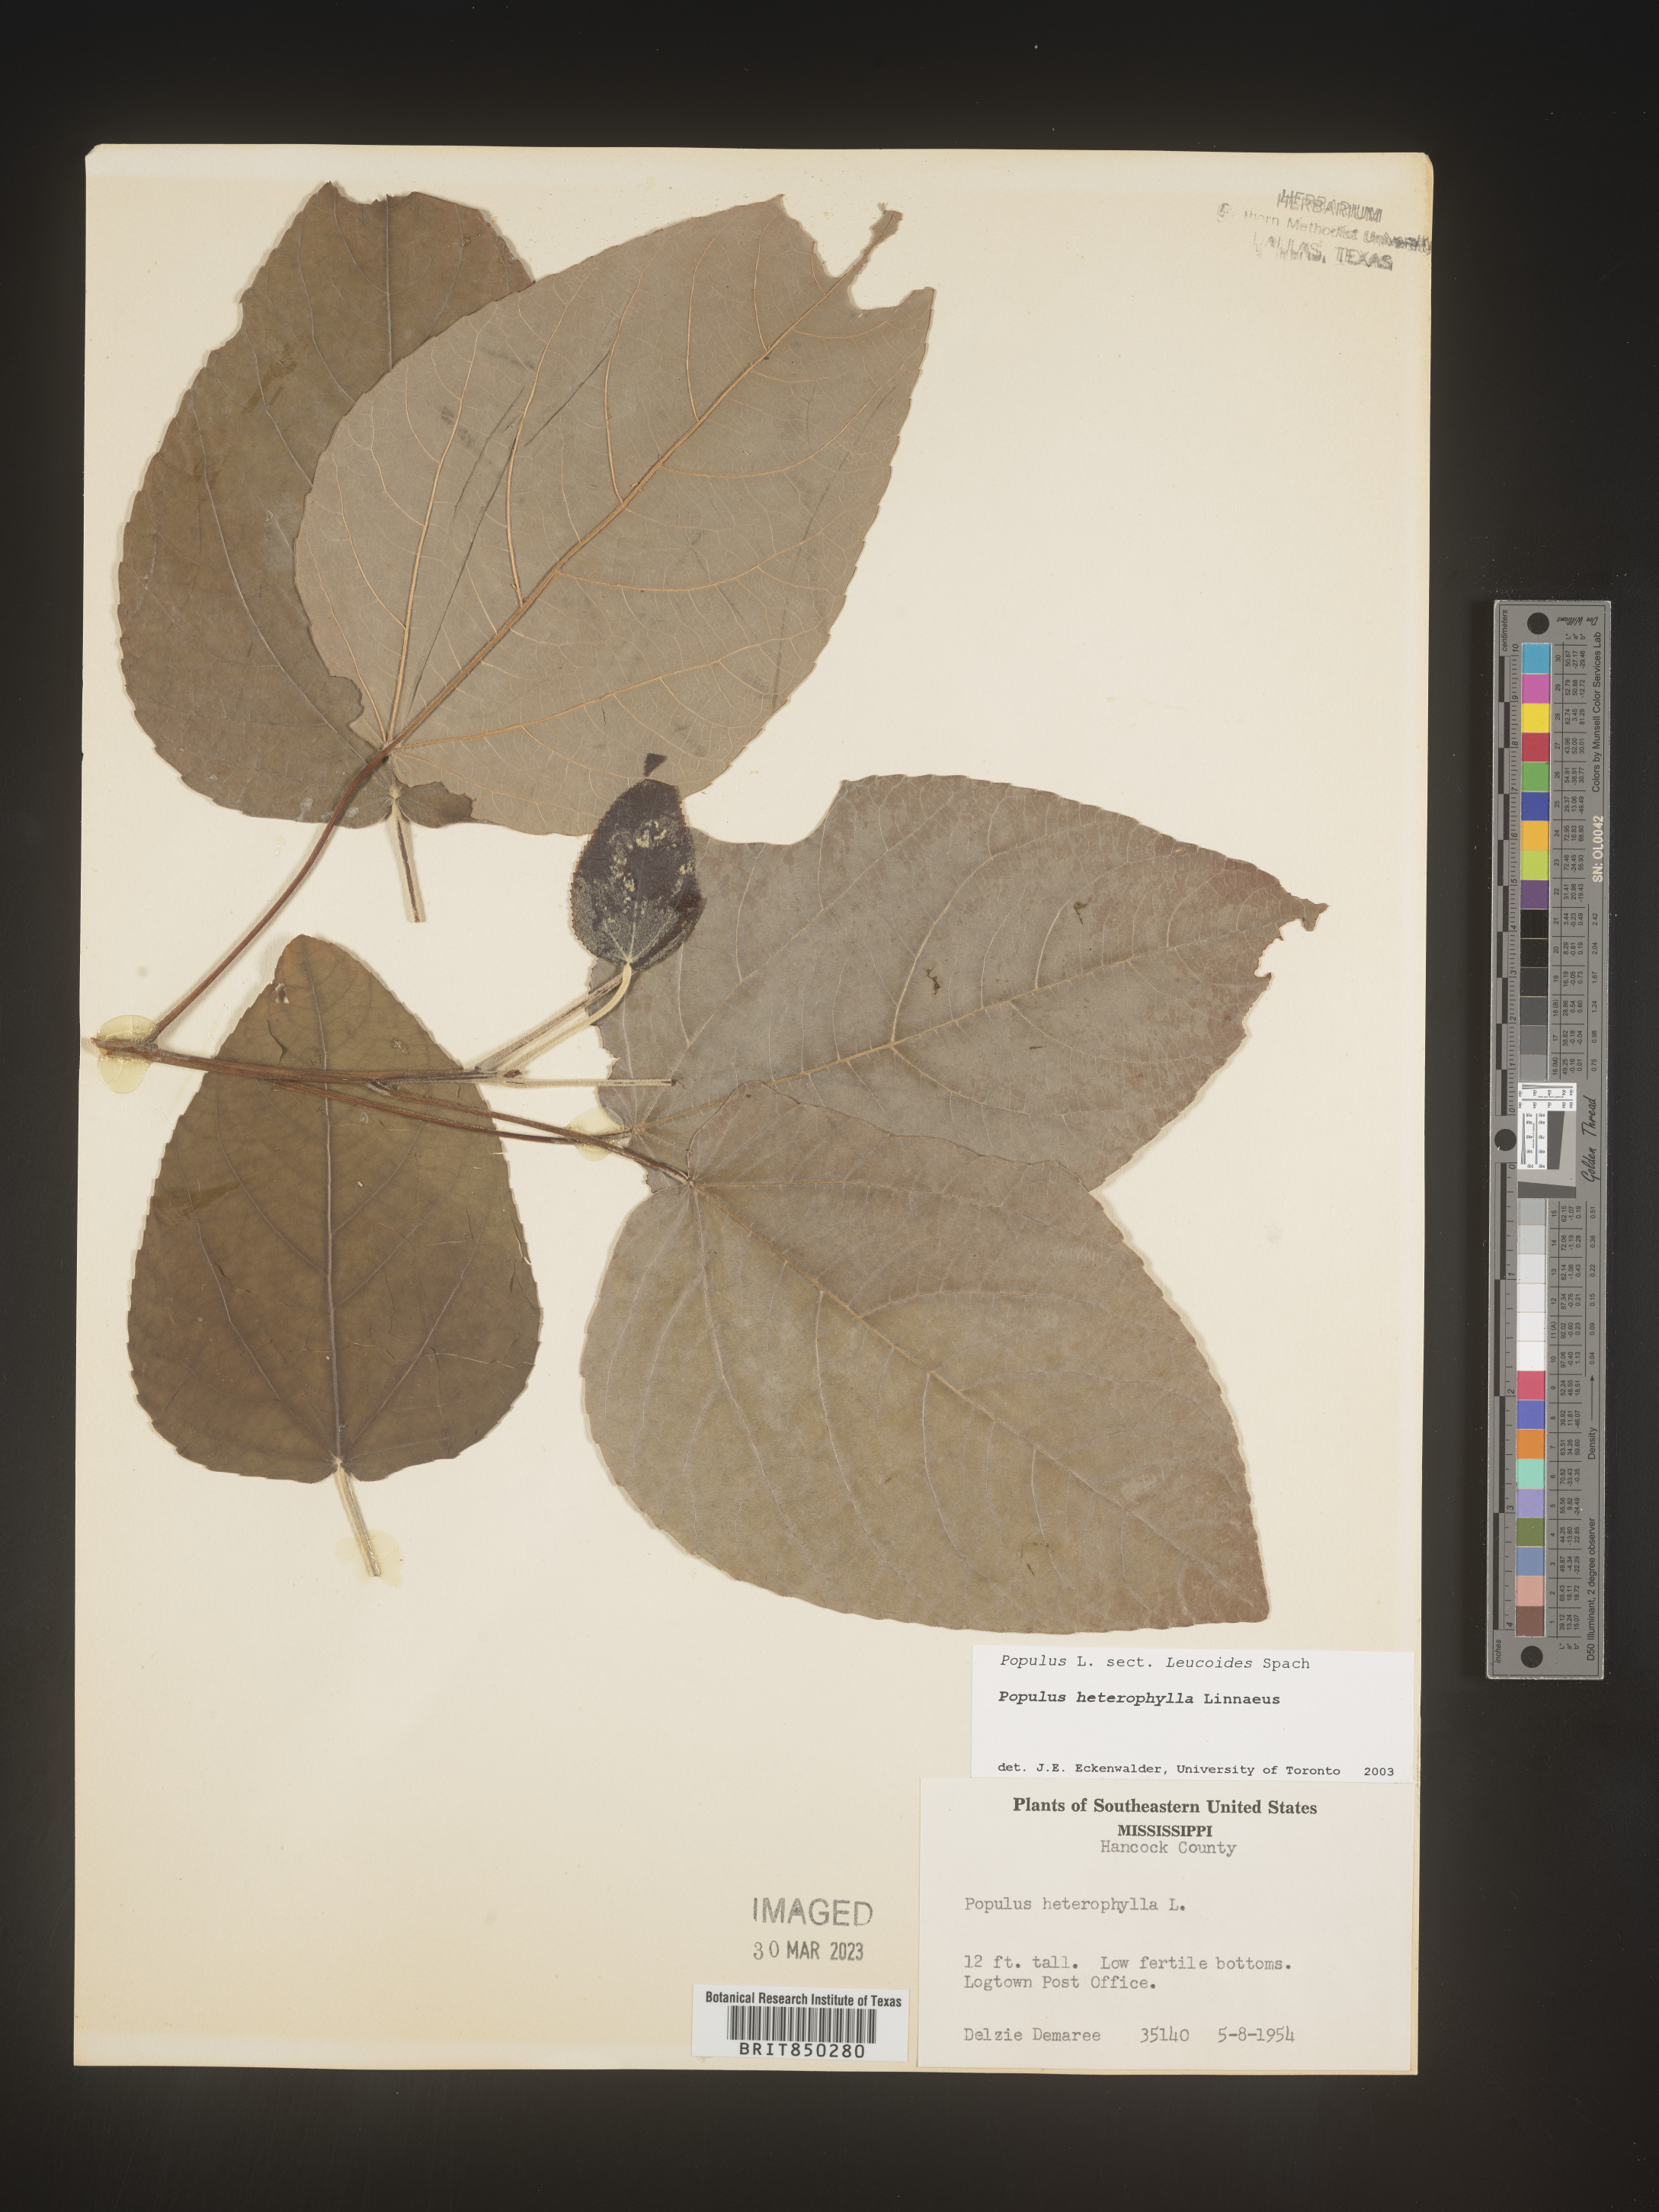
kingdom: Plantae
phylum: Tracheophyta
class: Magnoliopsida
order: Malpighiales
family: Salicaceae
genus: Populus
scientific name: Populus heterophylla
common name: Downy poplar
